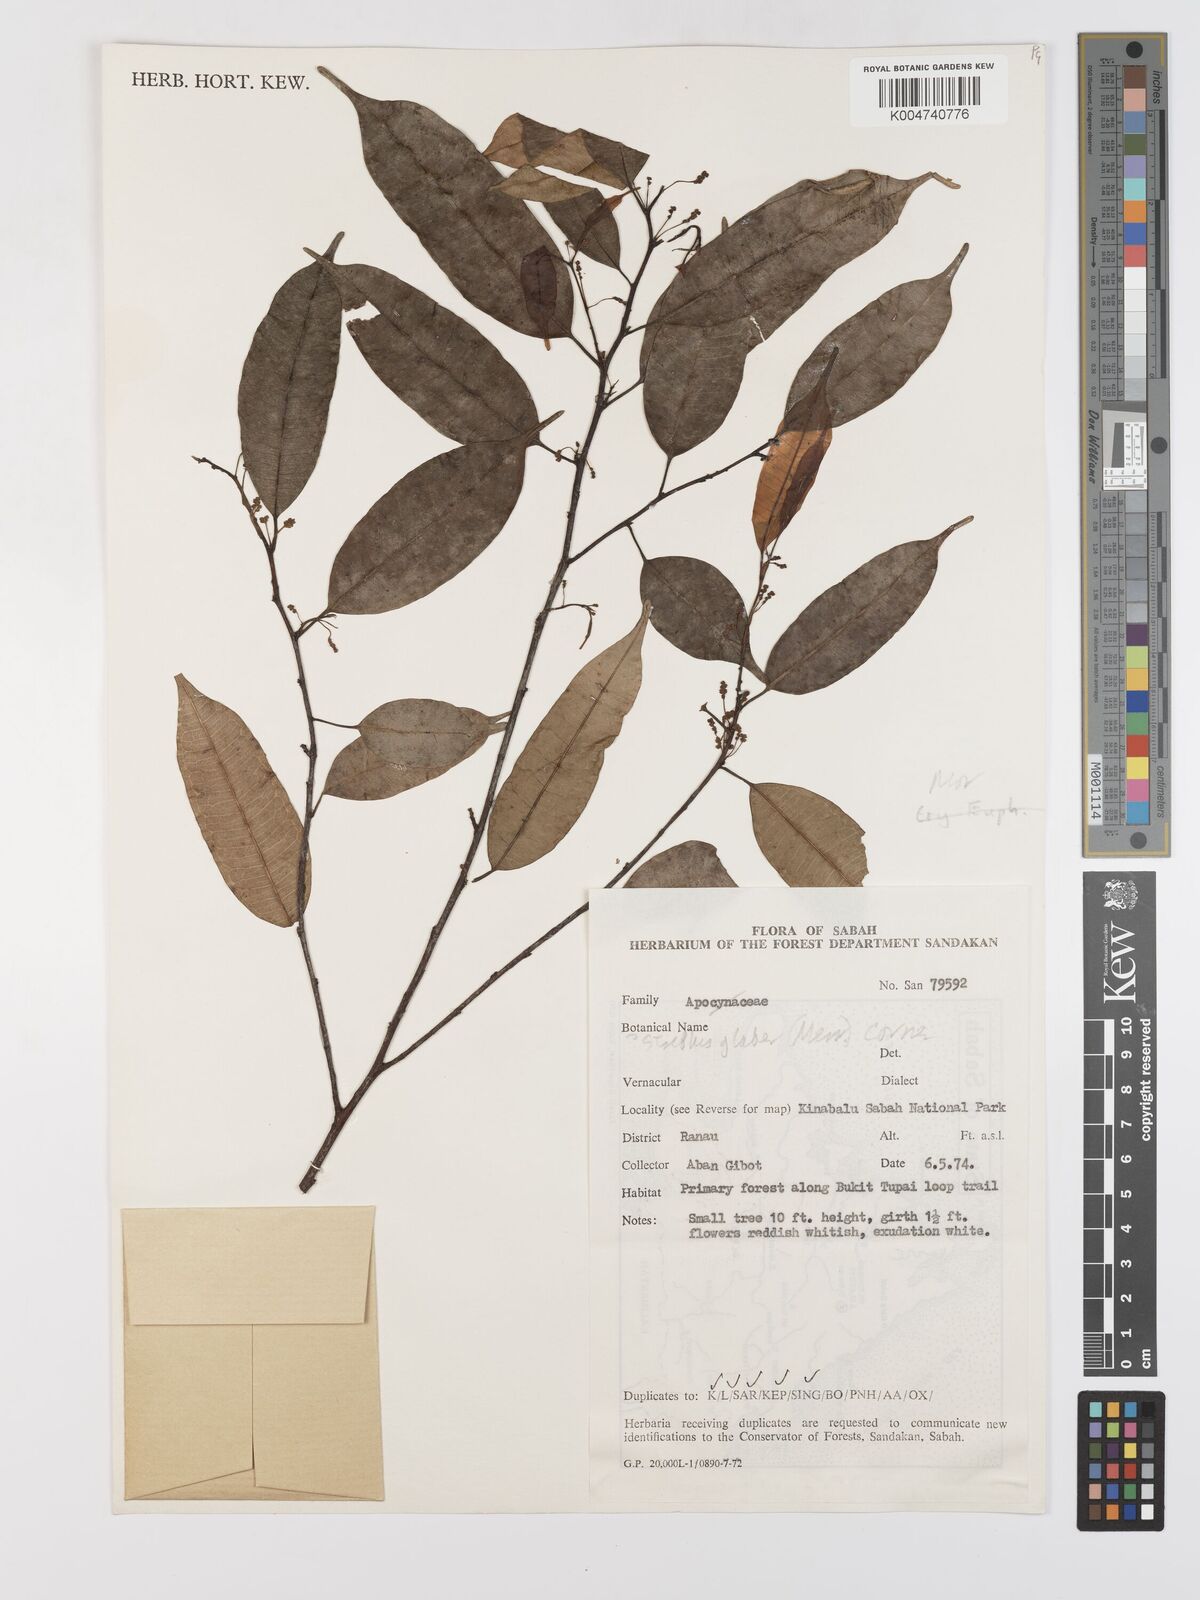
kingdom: Plantae
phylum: Tracheophyta
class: Magnoliopsida
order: Rosales
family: Moraceae
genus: Paratrophis
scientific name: Paratrophis glabra
